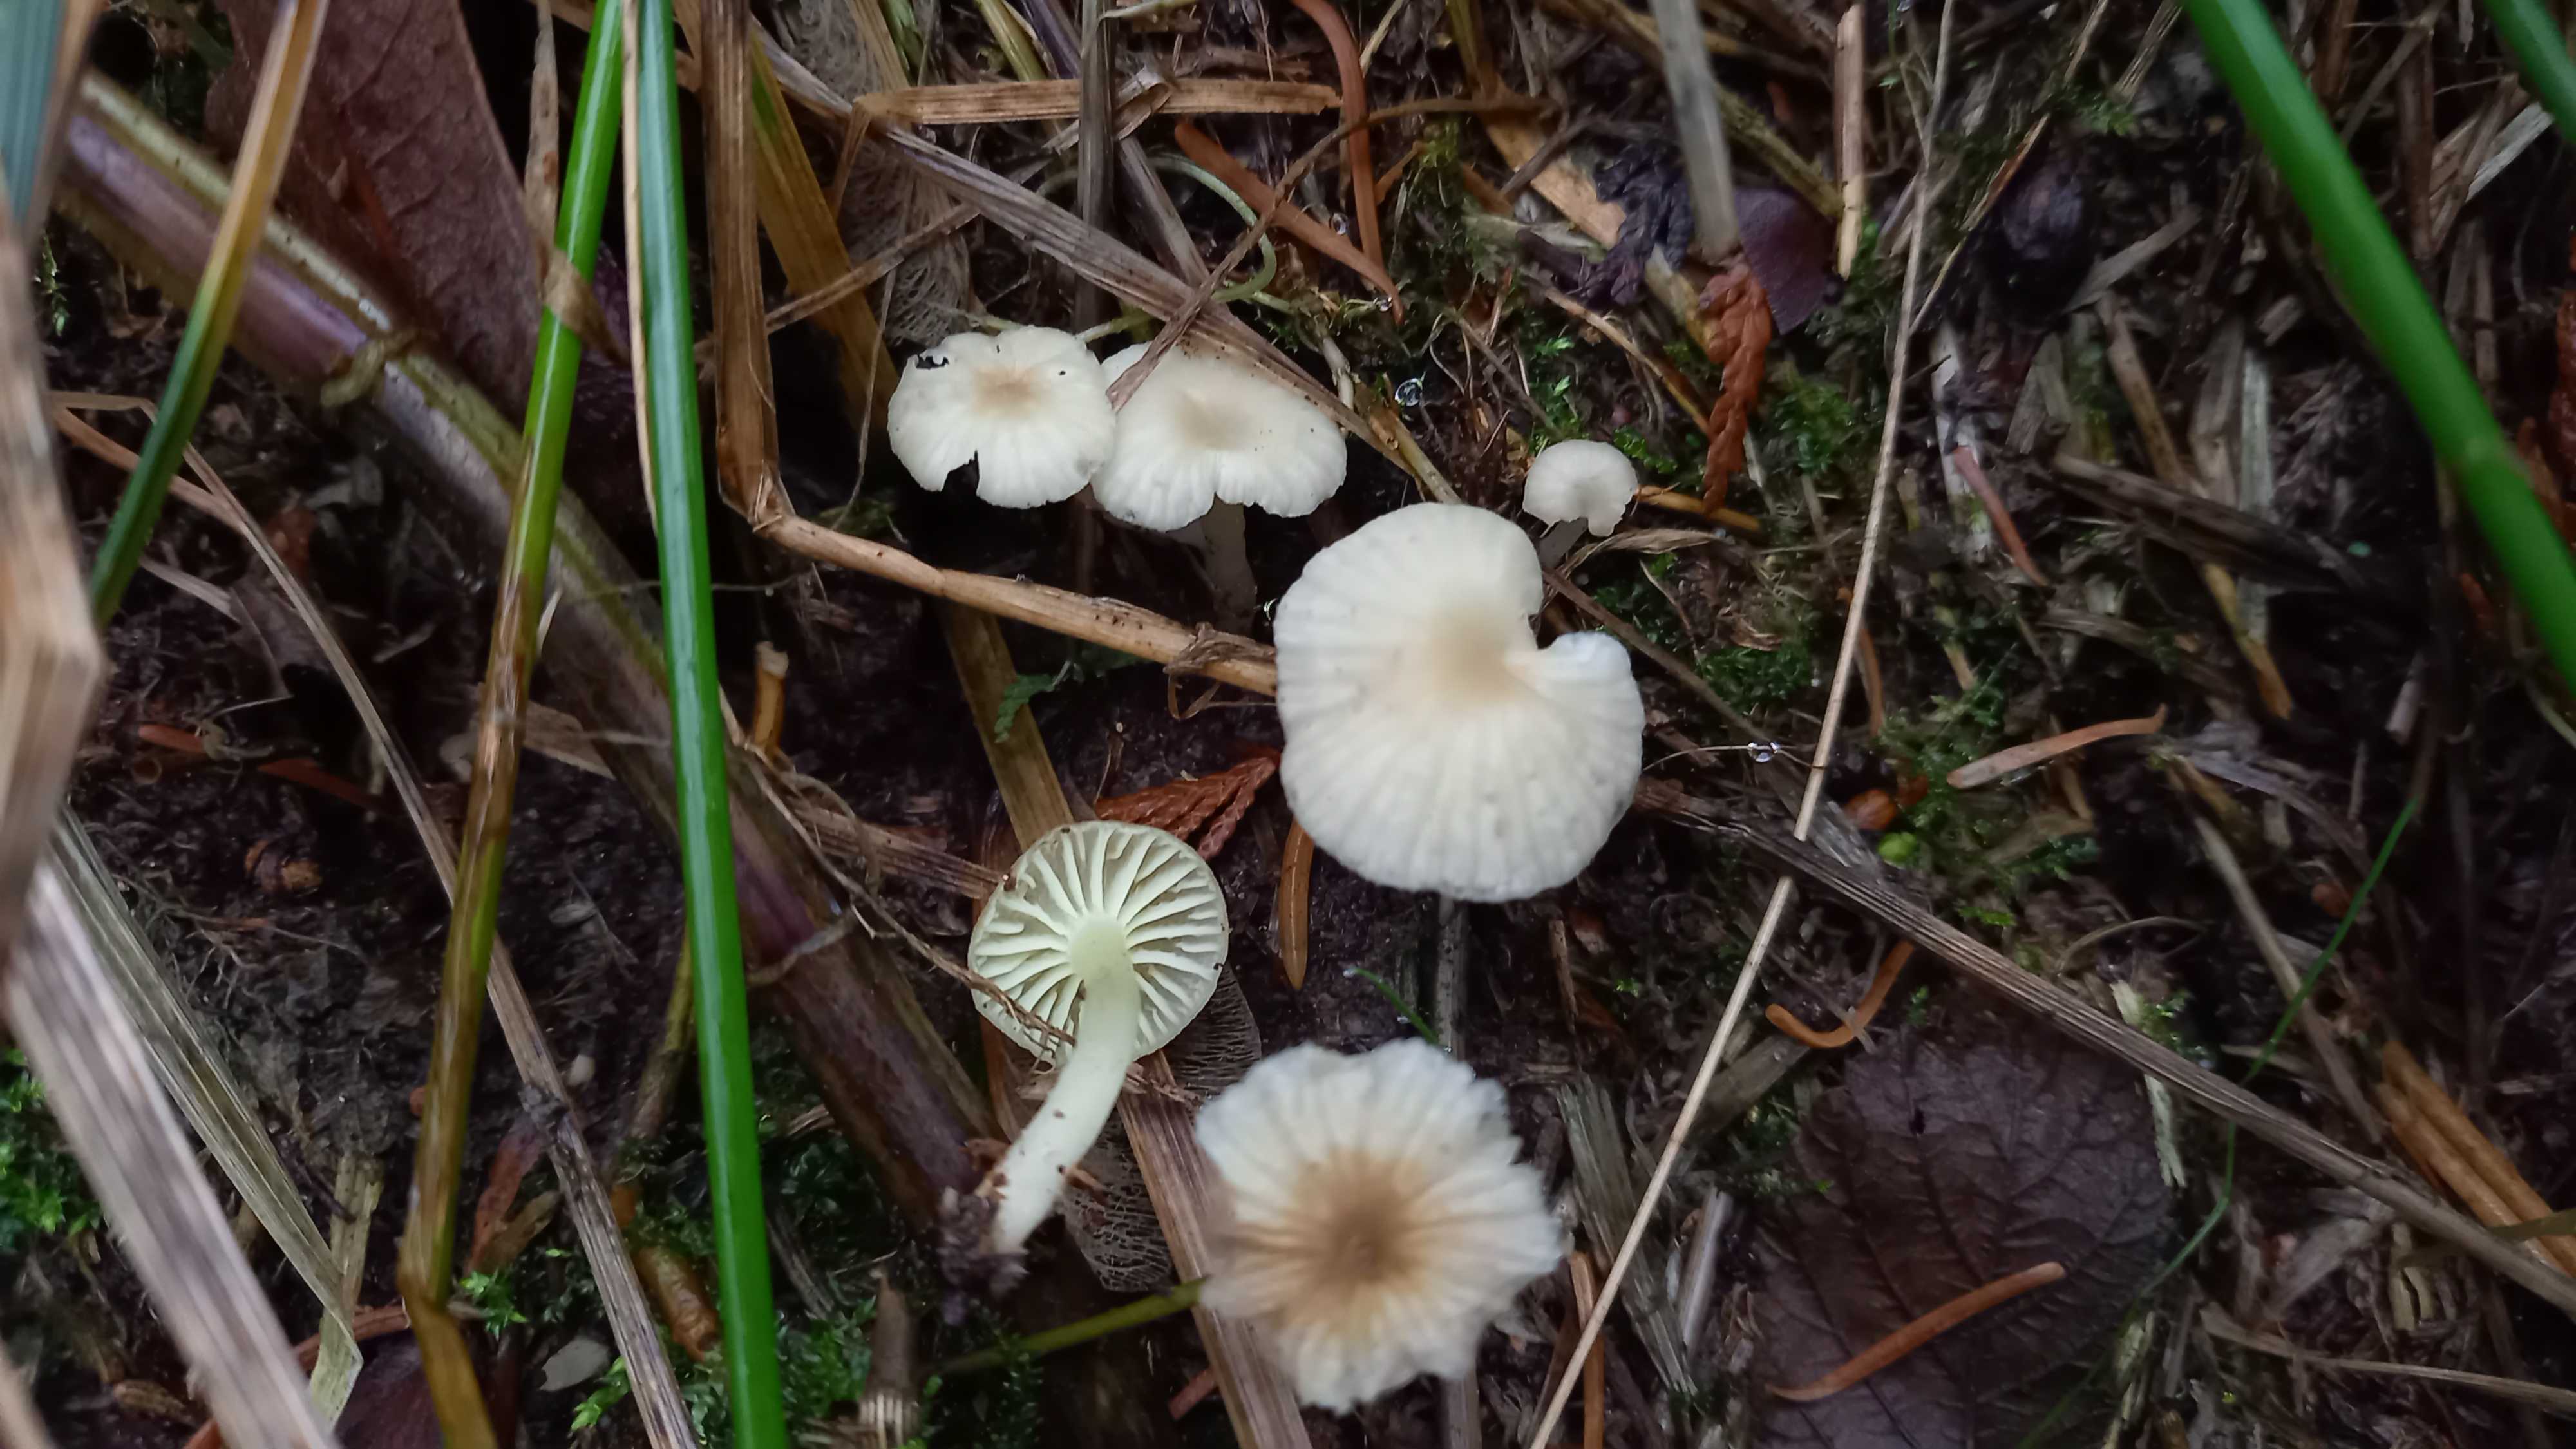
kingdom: Fungi
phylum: Basidiomycota
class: Agaricomycetes
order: Agaricales
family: Hygrophoraceae
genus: Chrysomphalina
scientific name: Chrysomphalina grossula
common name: stød-gyldenblad
